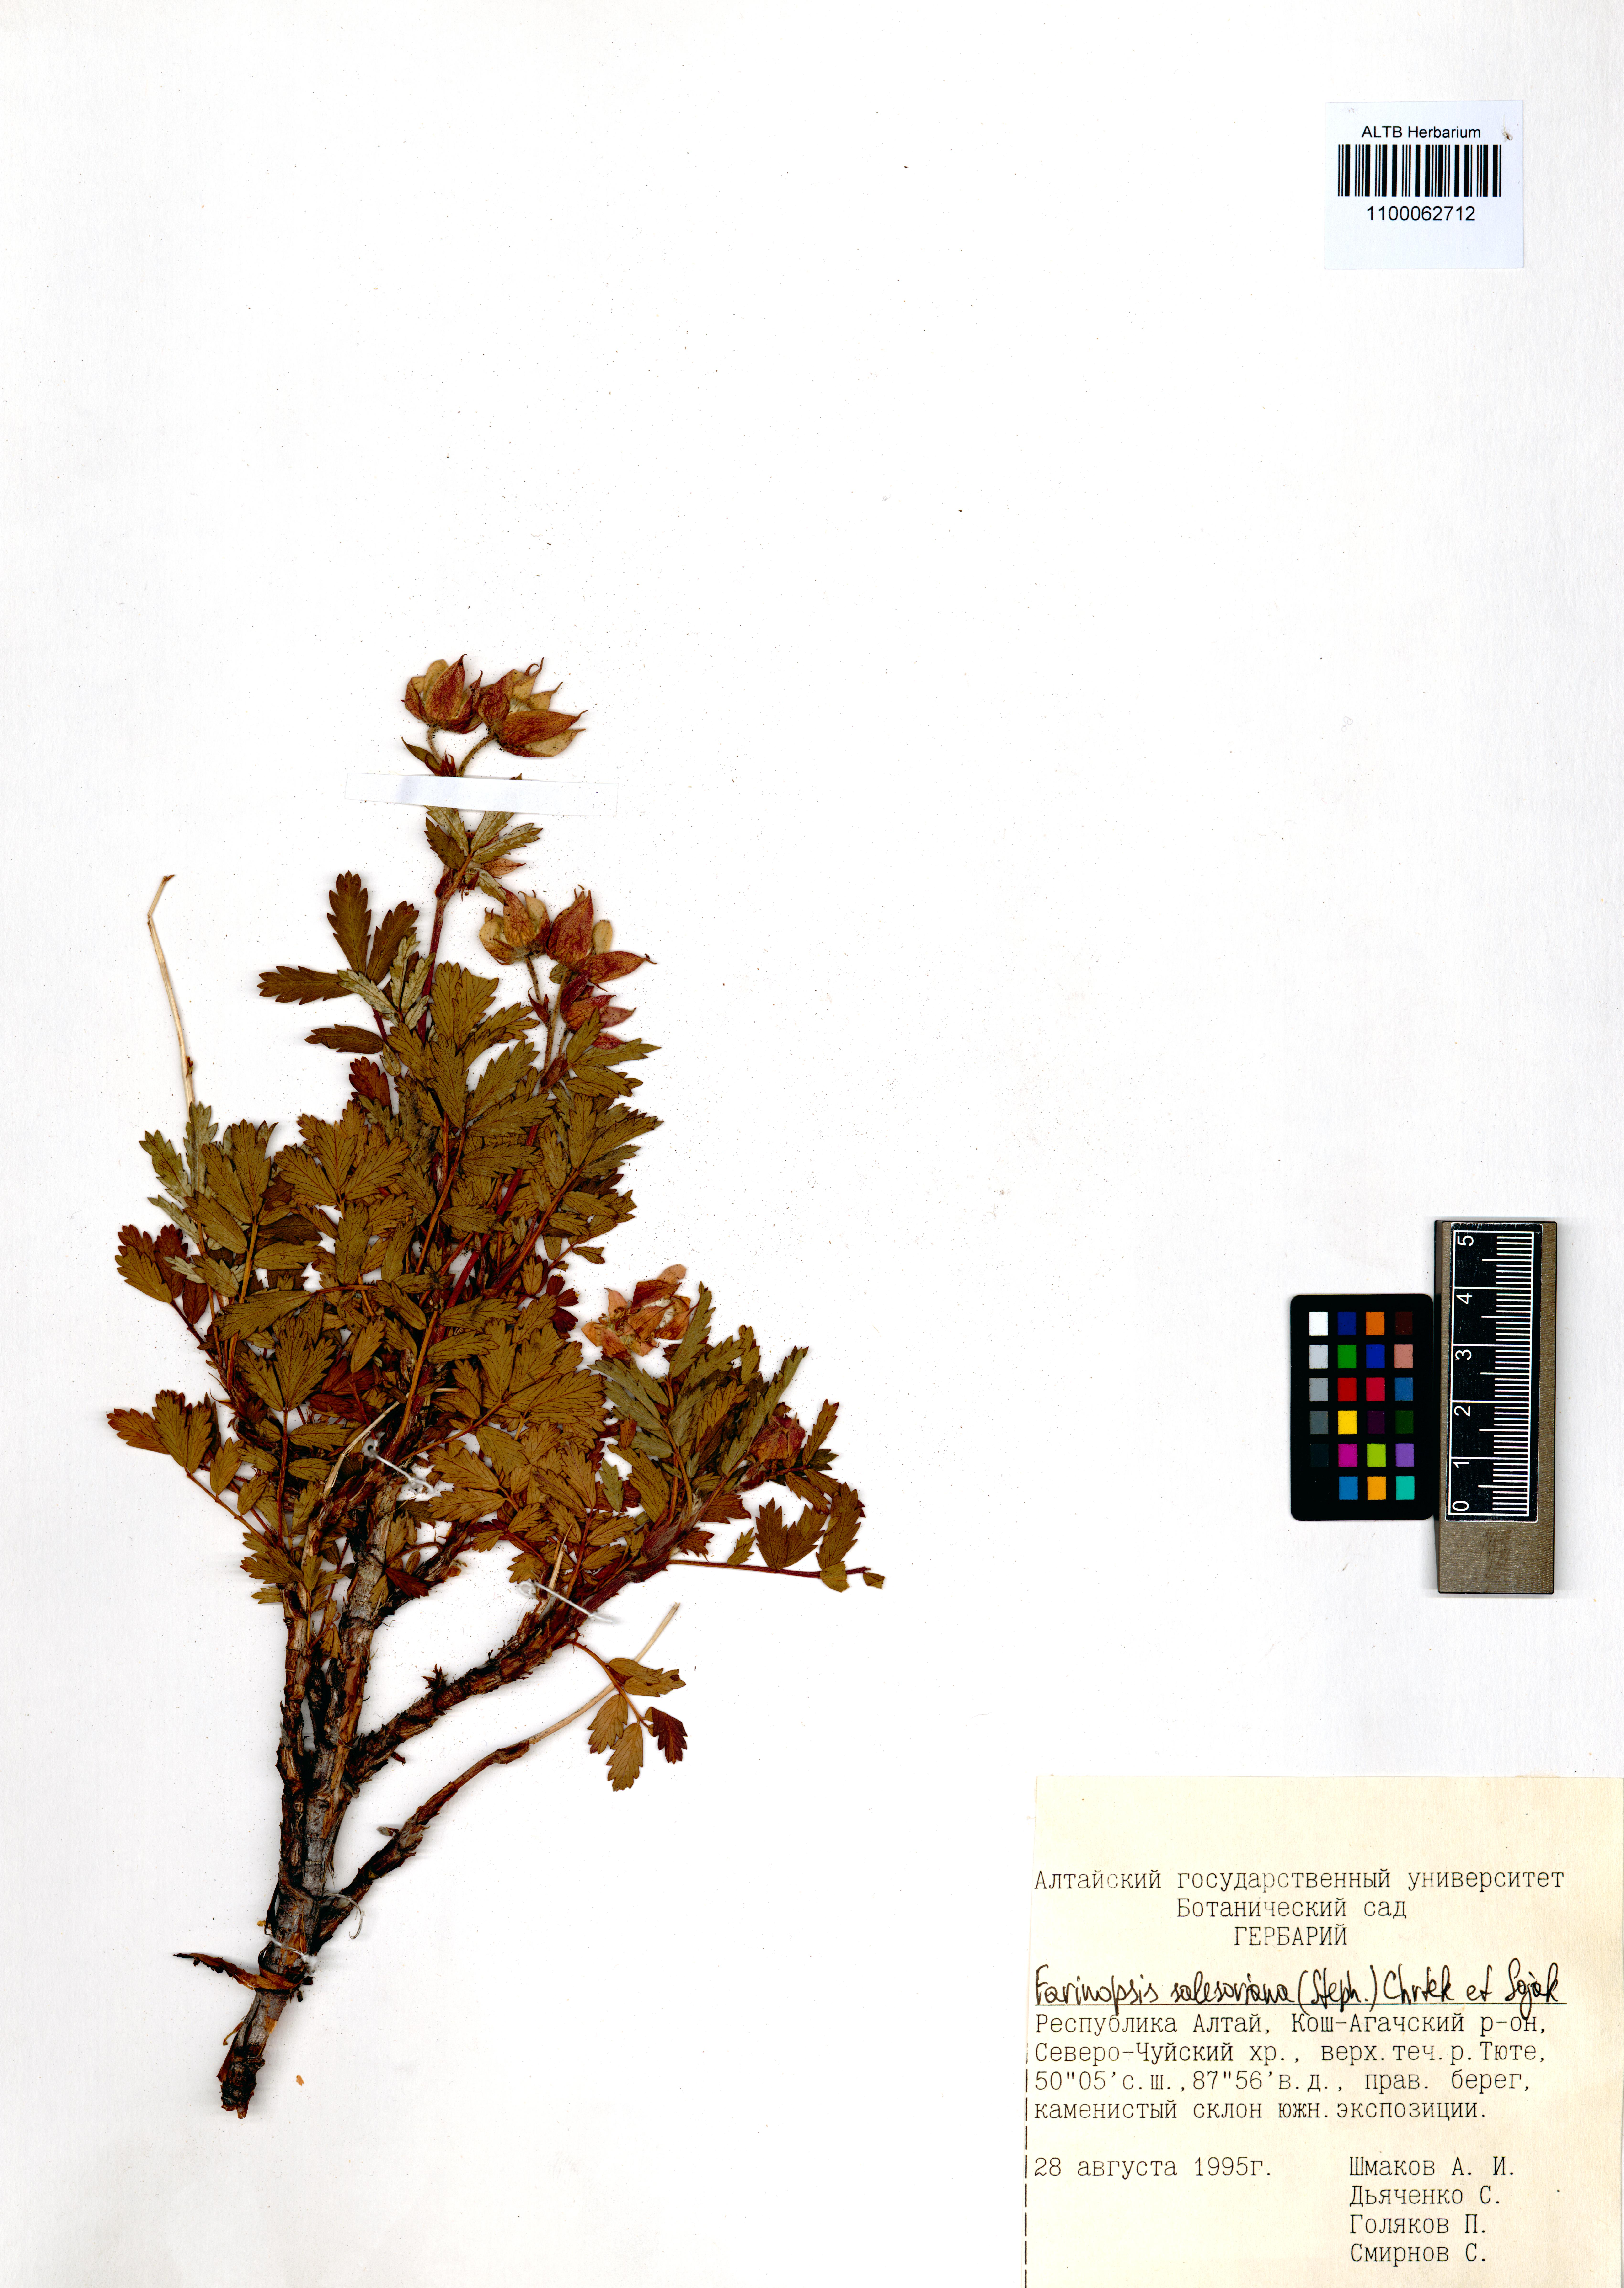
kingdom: Plantae
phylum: Tracheophyta
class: Magnoliopsida
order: Rosales
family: Rosaceae
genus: Farinopsis
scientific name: Farinopsis salesoviana
